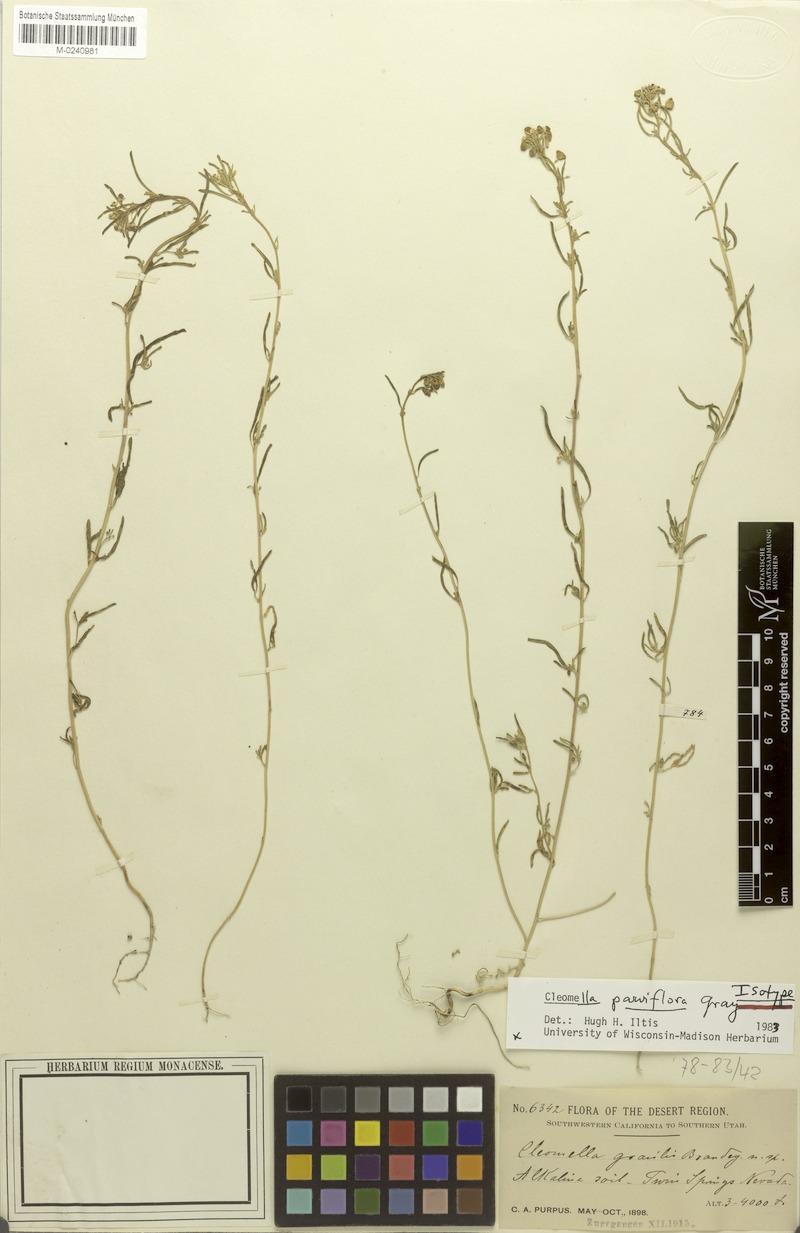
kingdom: Plantae
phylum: Tracheophyta
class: Magnoliopsida
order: Brassicales
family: Cleomaceae
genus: Cleomella
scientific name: Cleomella parviflora
